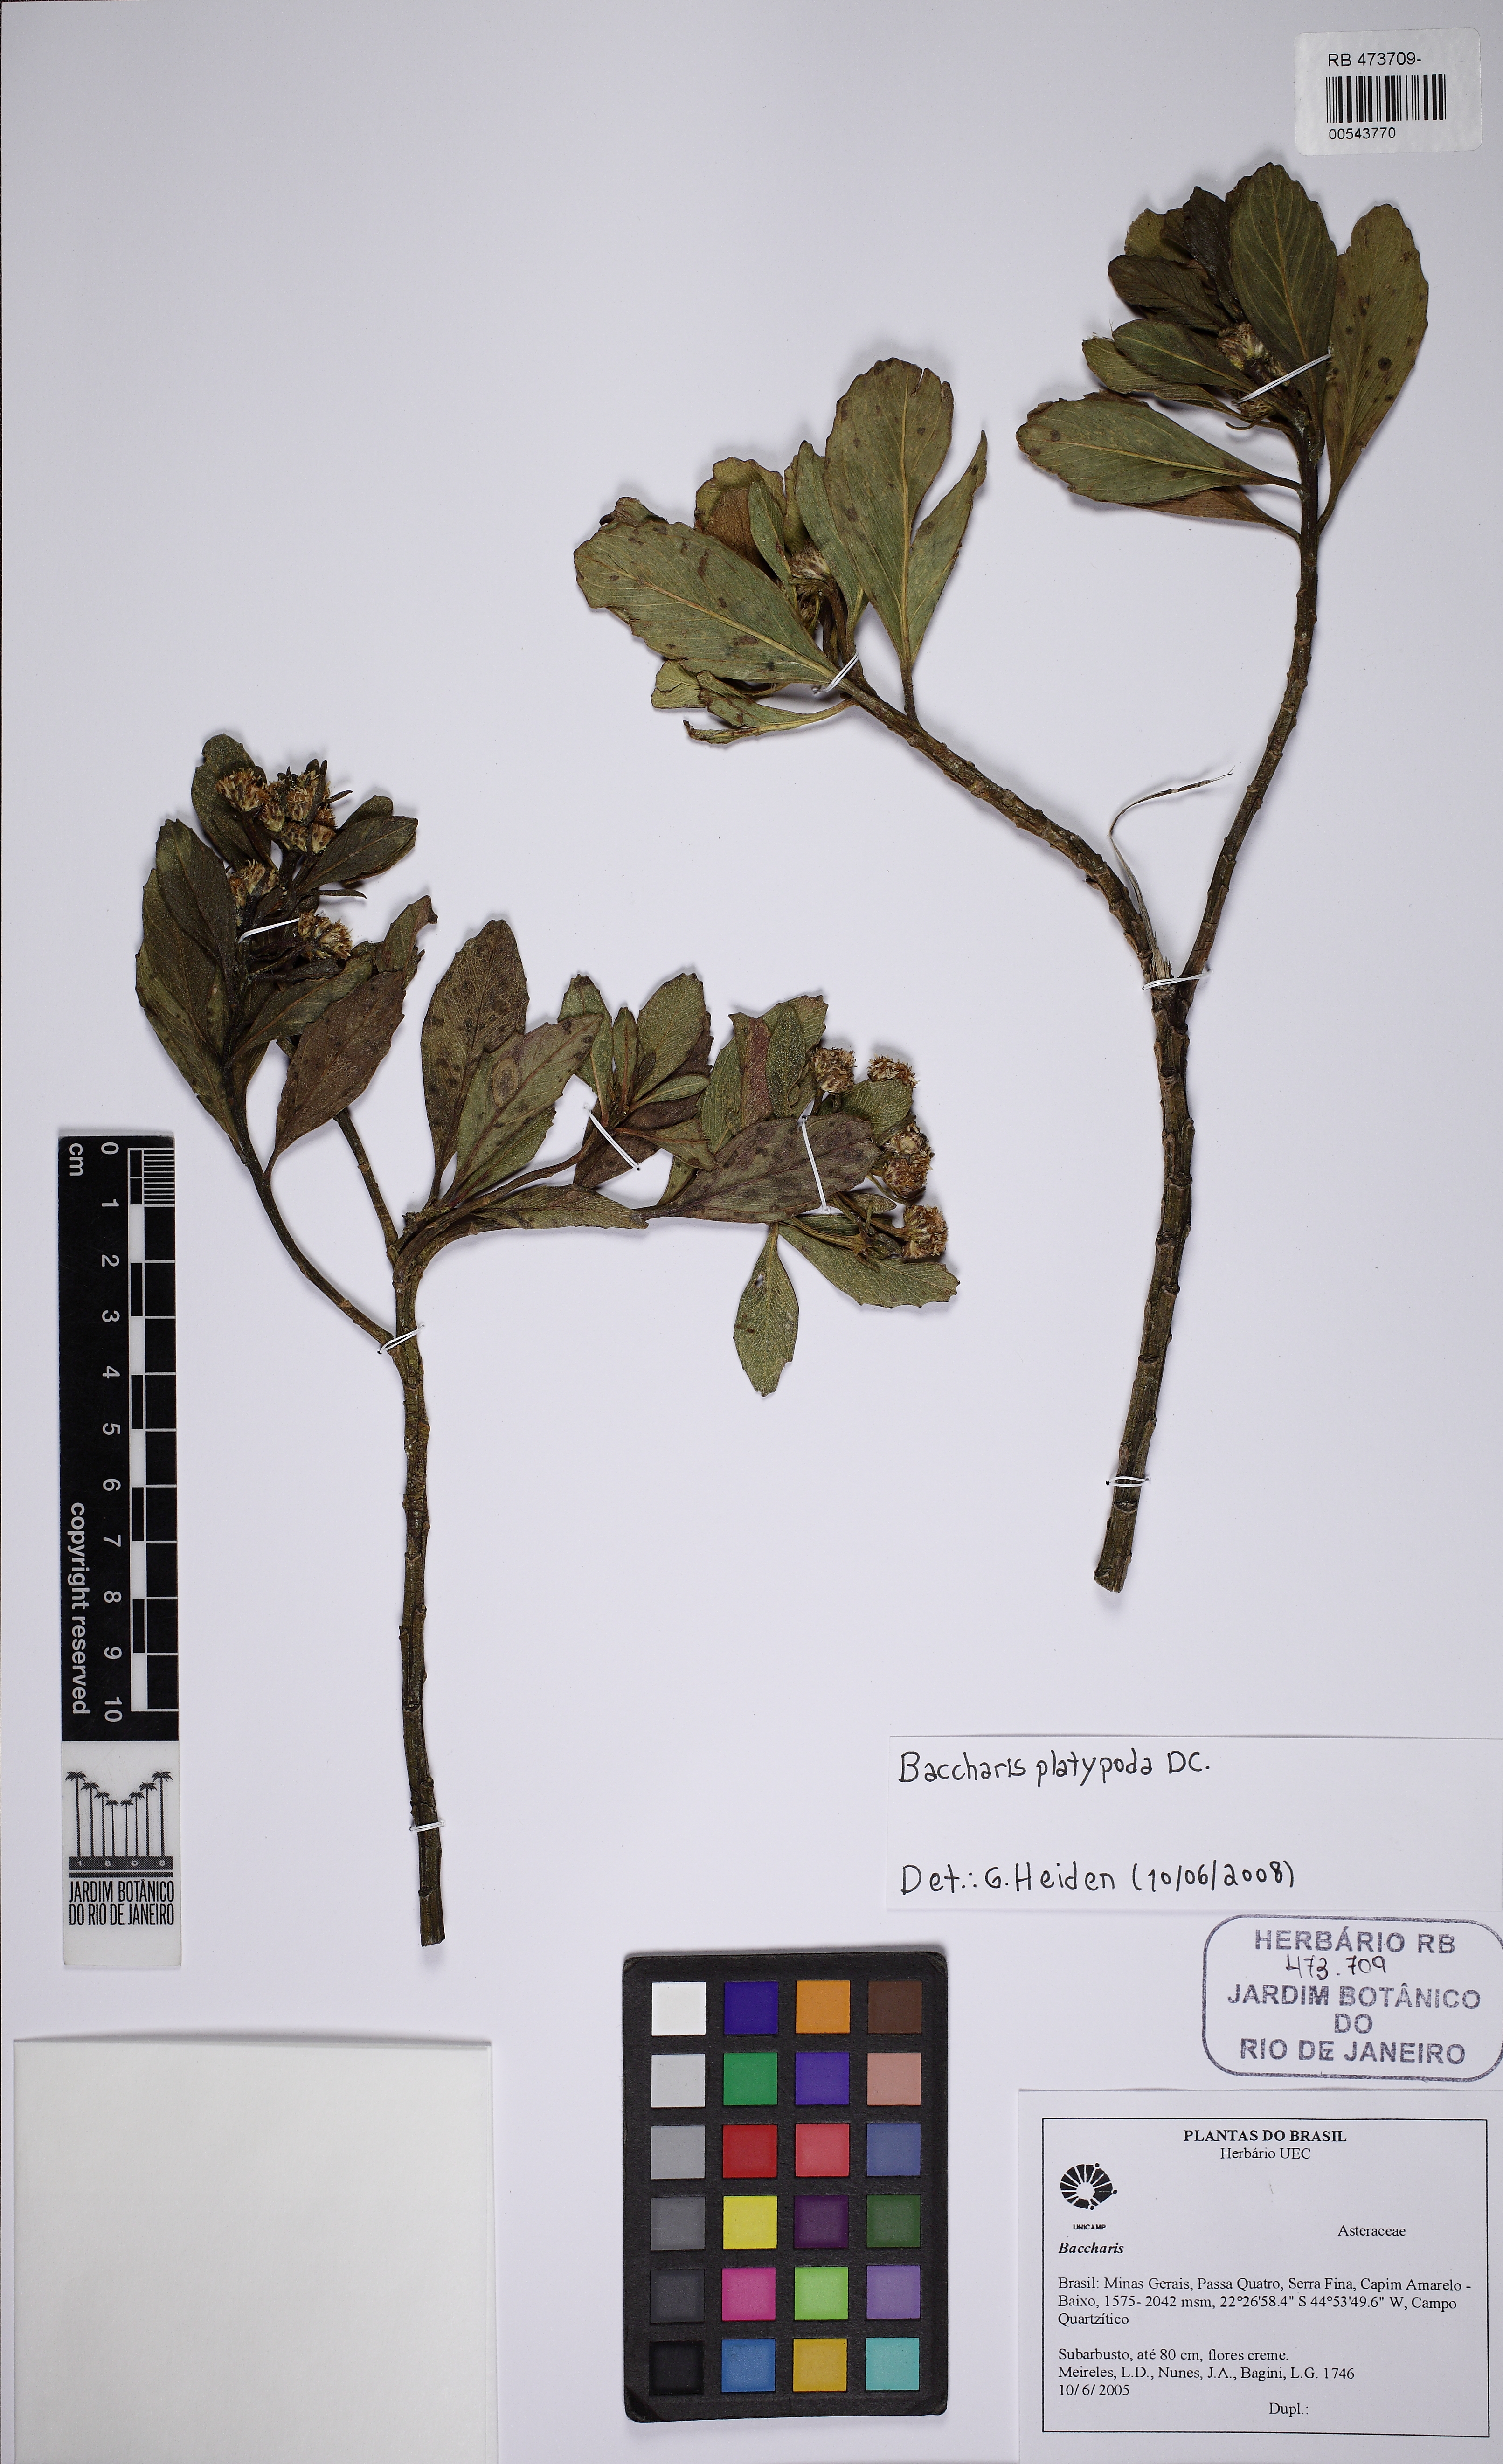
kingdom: Plantae
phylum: Tracheophyta
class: Magnoliopsida
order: Asterales
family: Asteraceae
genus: Baccharis
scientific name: Baccharis platypoda
